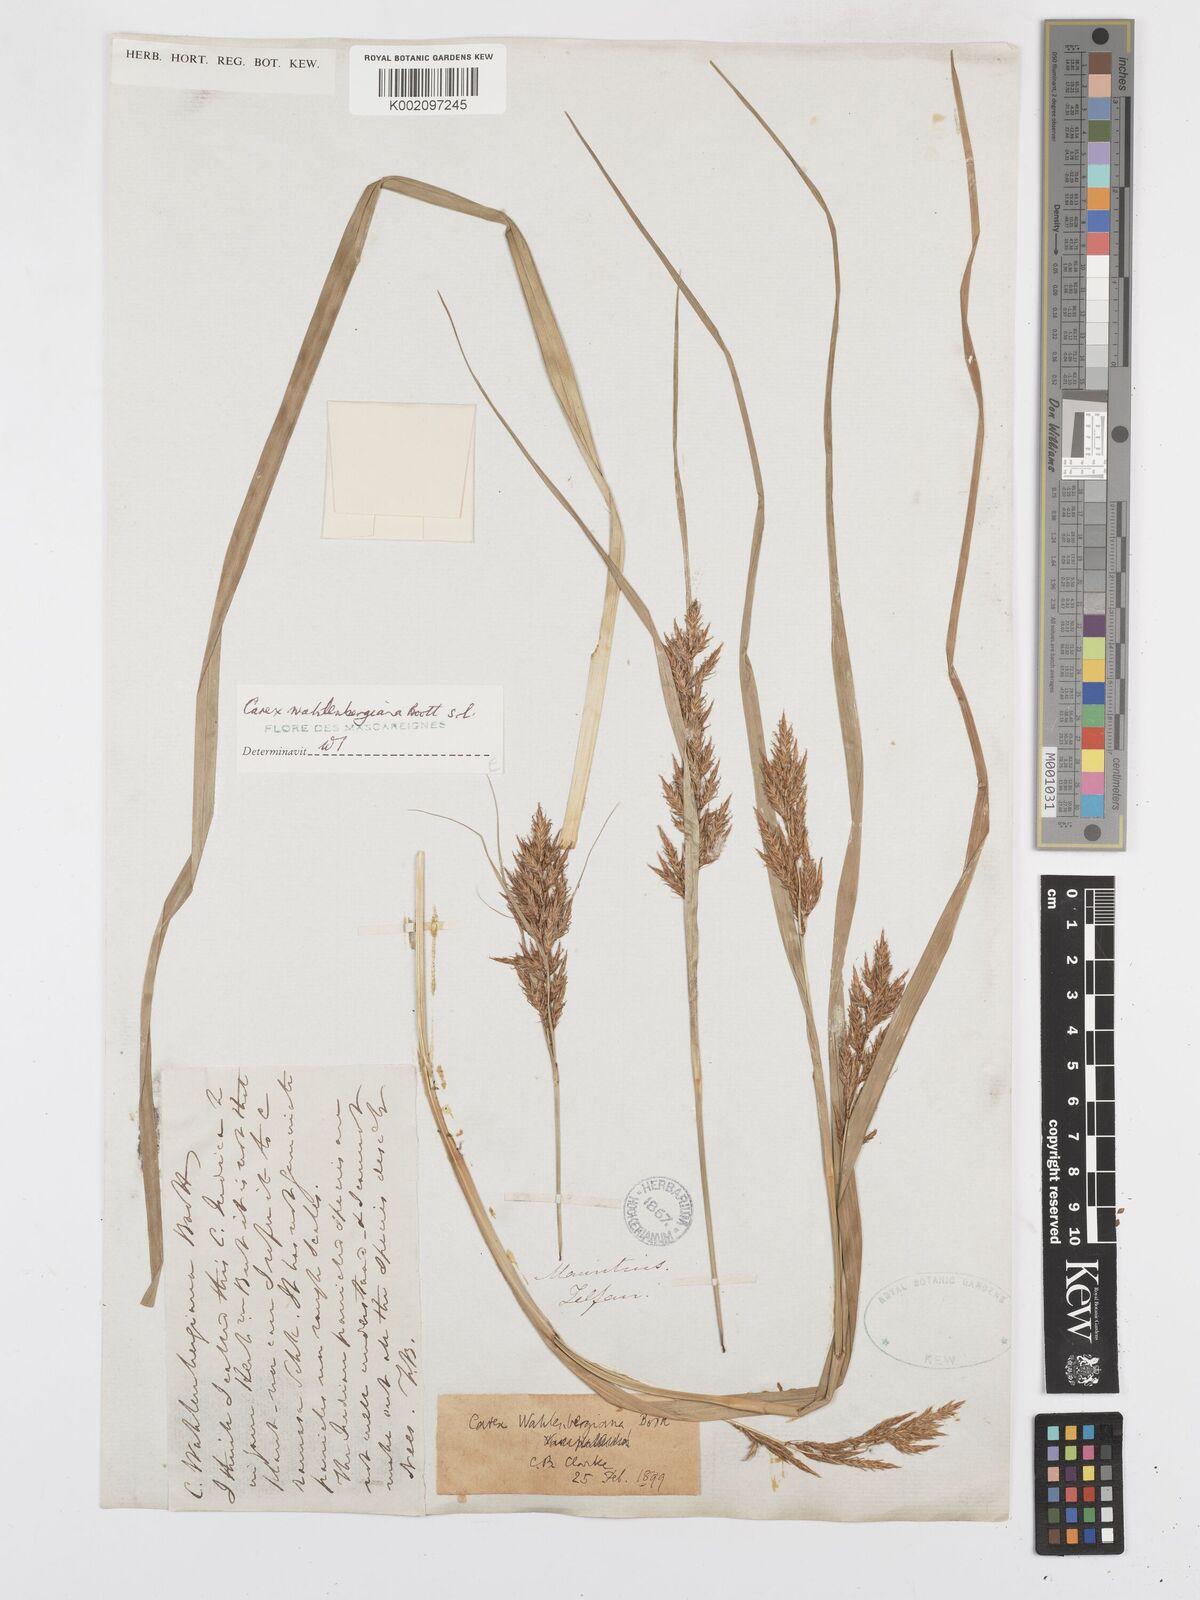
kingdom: Plantae
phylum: Tracheophyta
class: Liliopsida
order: Poales
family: Cyperaceae
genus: Carex
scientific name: Carex wahlenbergiana
